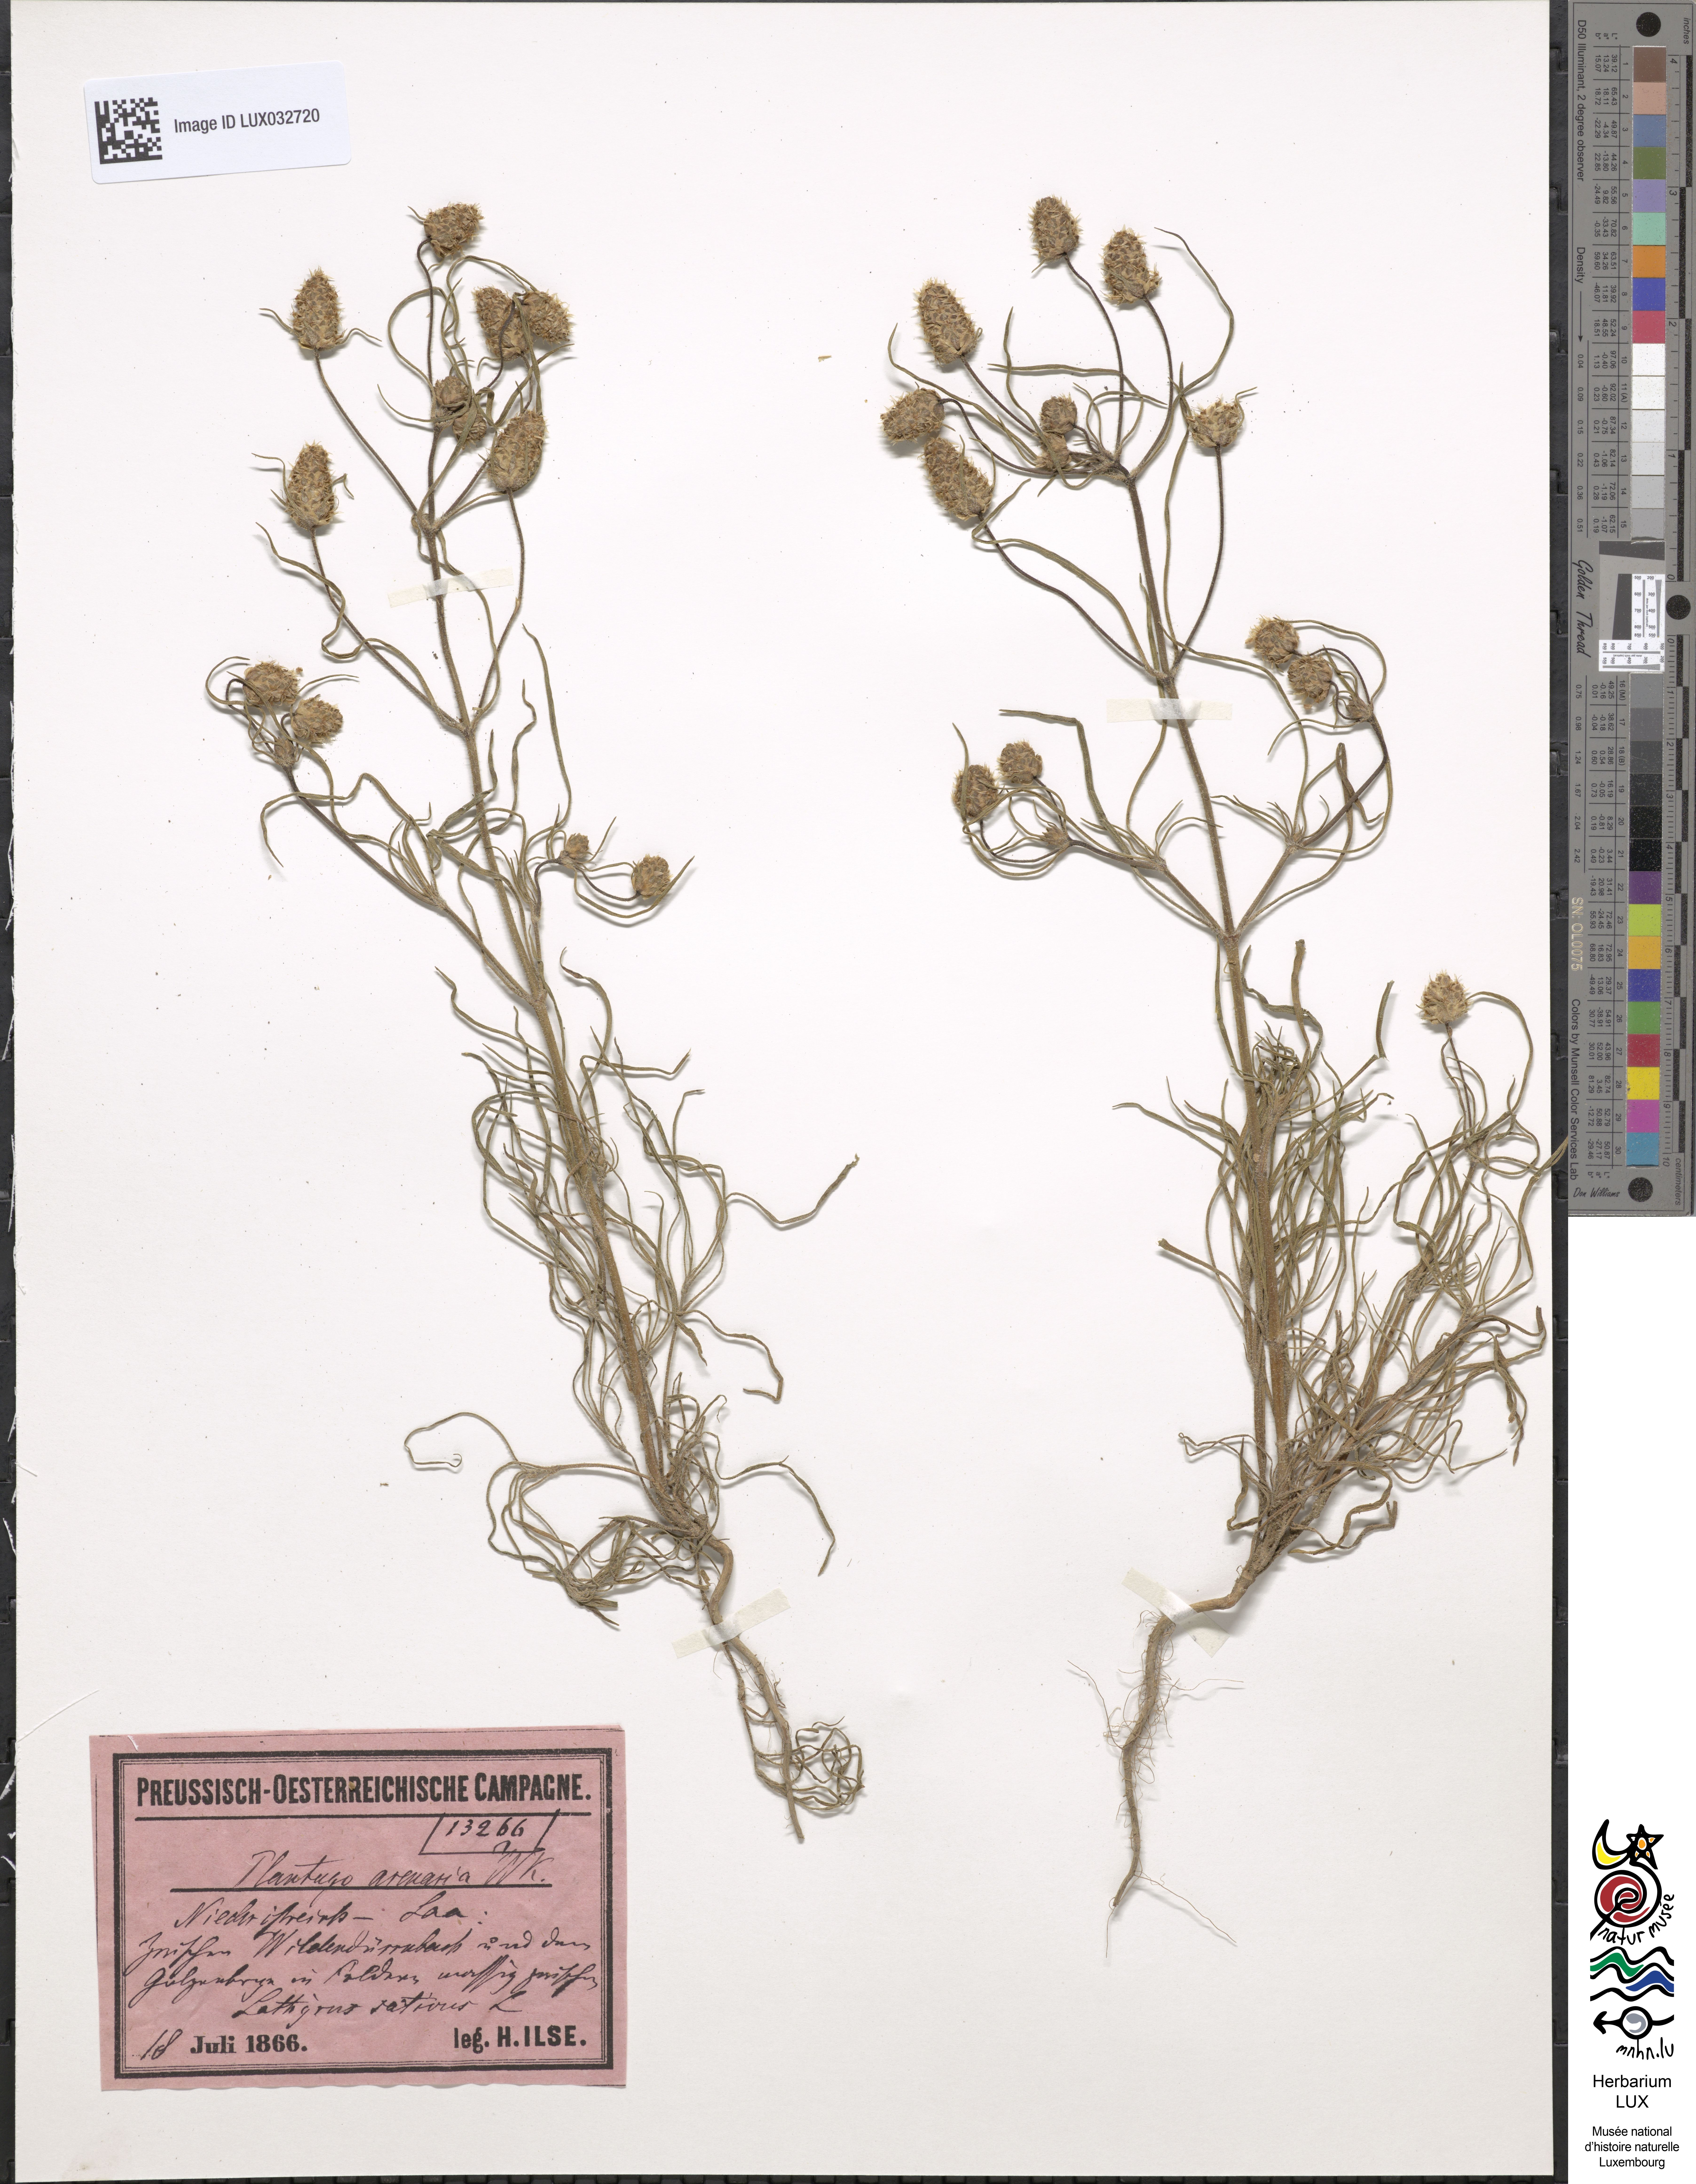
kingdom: Plantae
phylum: Tracheophyta
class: Magnoliopsida
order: Lamiales
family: Plantaginaceae
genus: Plantago
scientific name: Plantago arenaria
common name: Branched plantain
